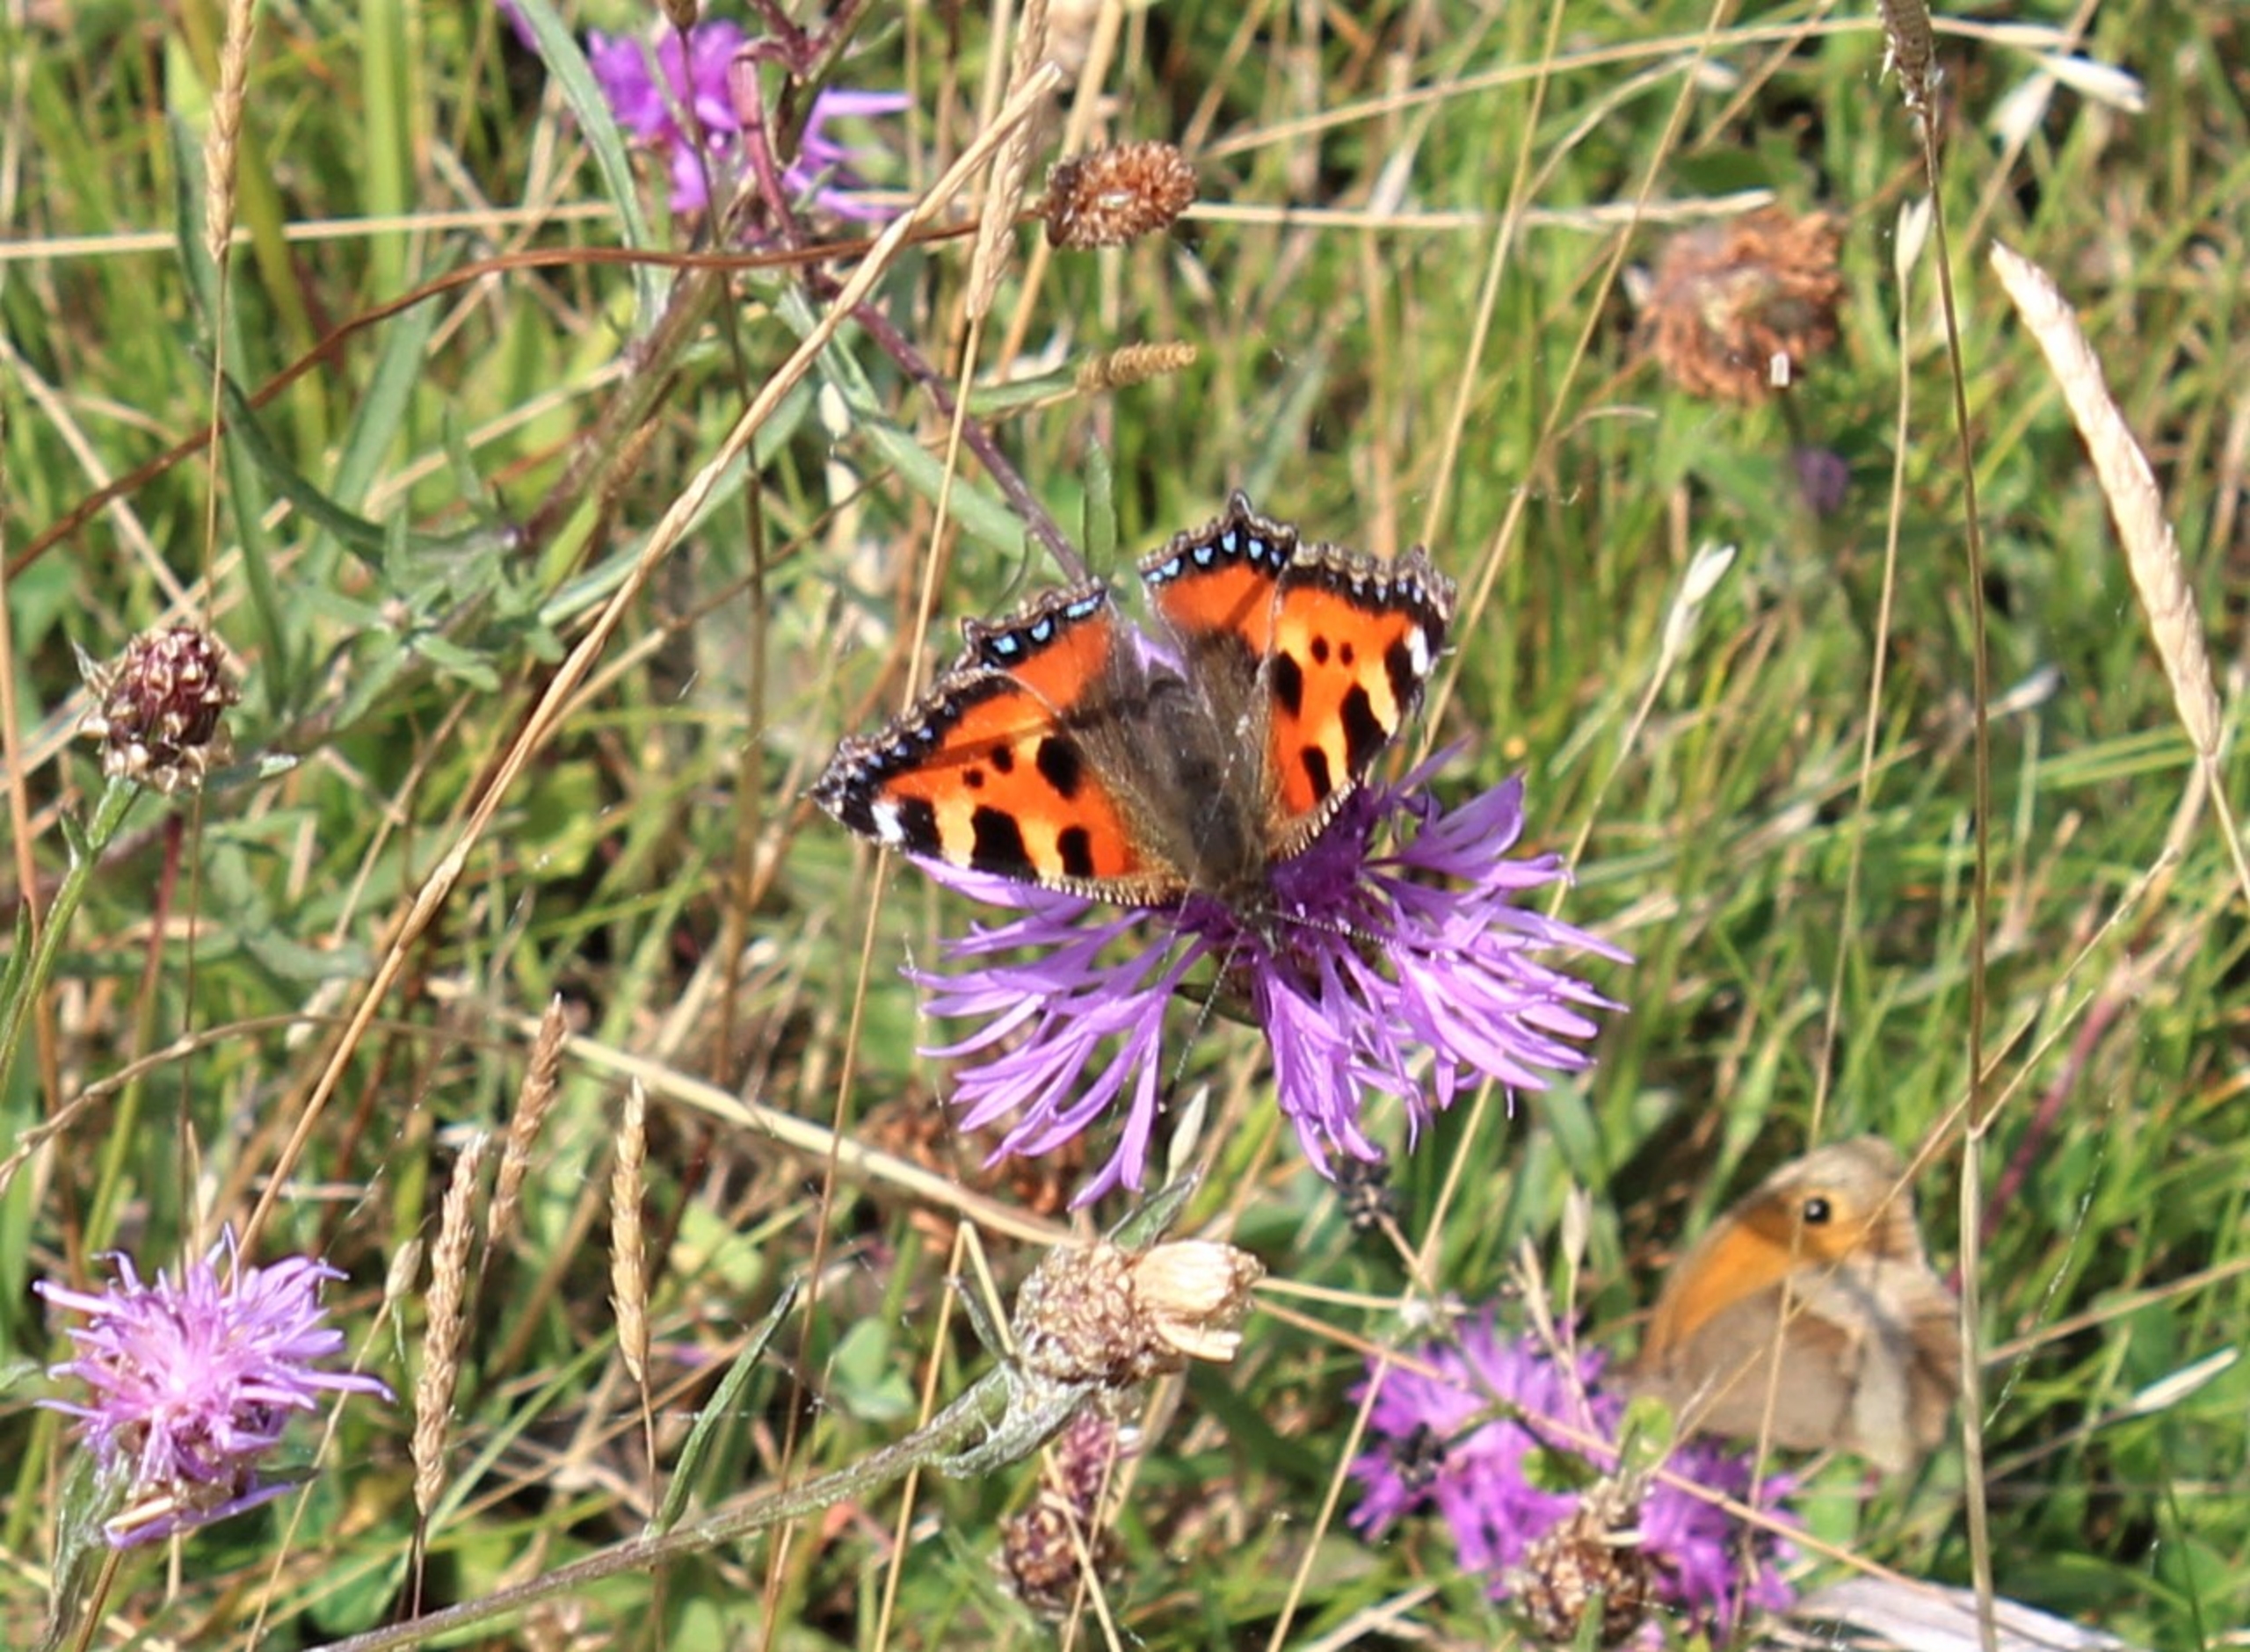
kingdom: Animalia
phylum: Arthropoda
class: Insecta
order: Lepidoptera
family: Nymphalidae
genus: Aglais
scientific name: Aglais urticae
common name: Nældens takvinge
